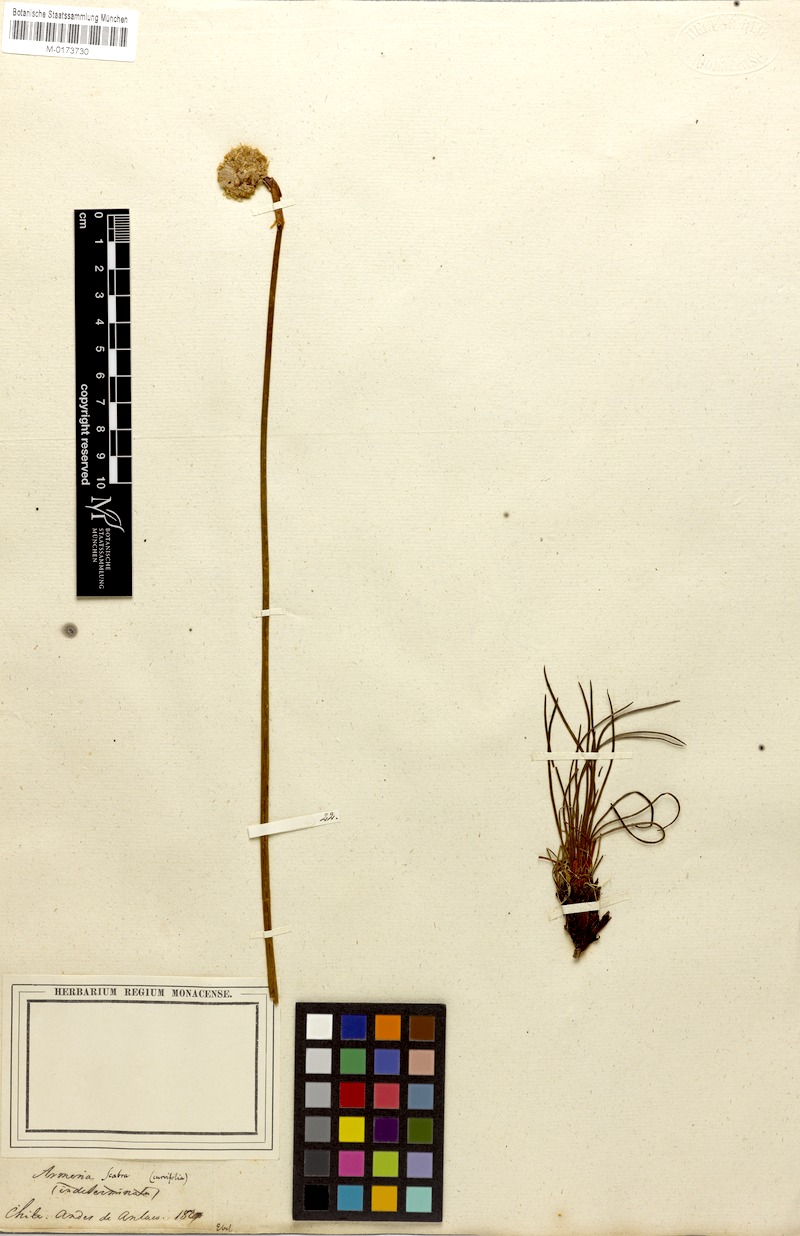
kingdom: Plantae
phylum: Tracheophyta
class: Magnoliopsida
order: Caryophyllales
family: Plumbaginaceae
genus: Armeria
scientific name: Armeria curvifolia
